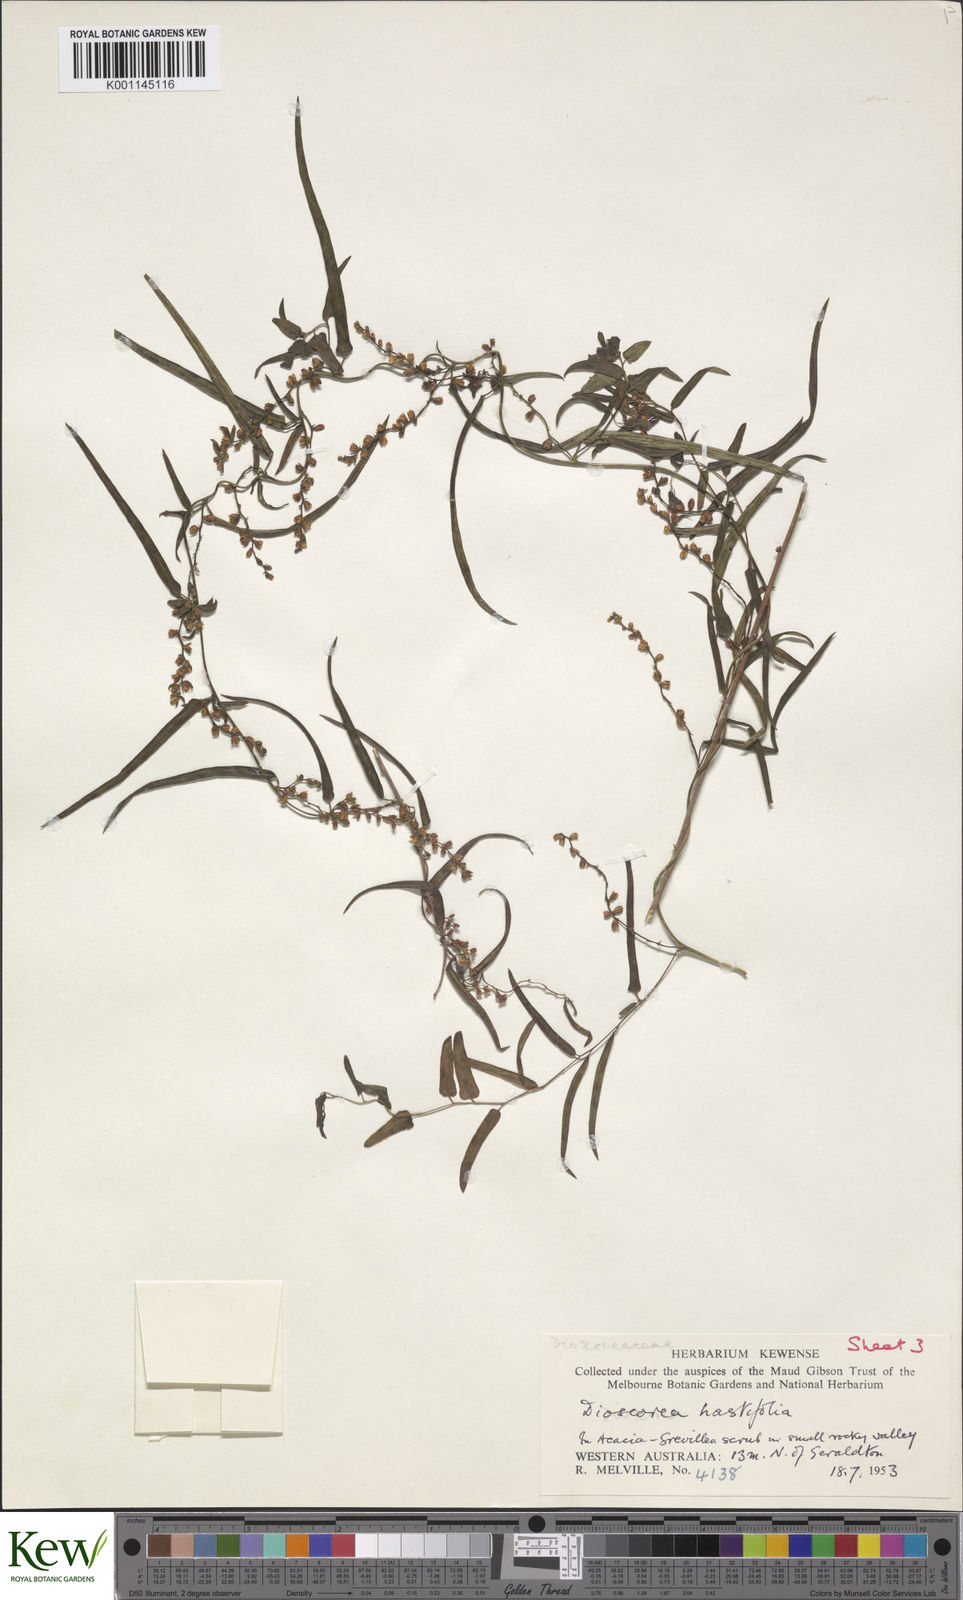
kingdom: Plantae
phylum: Tracheophyta
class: Liliopsida
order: Dioscoreales
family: Dioscoreaceae
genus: Dioscorea
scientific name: Dioscorea hastifolia
